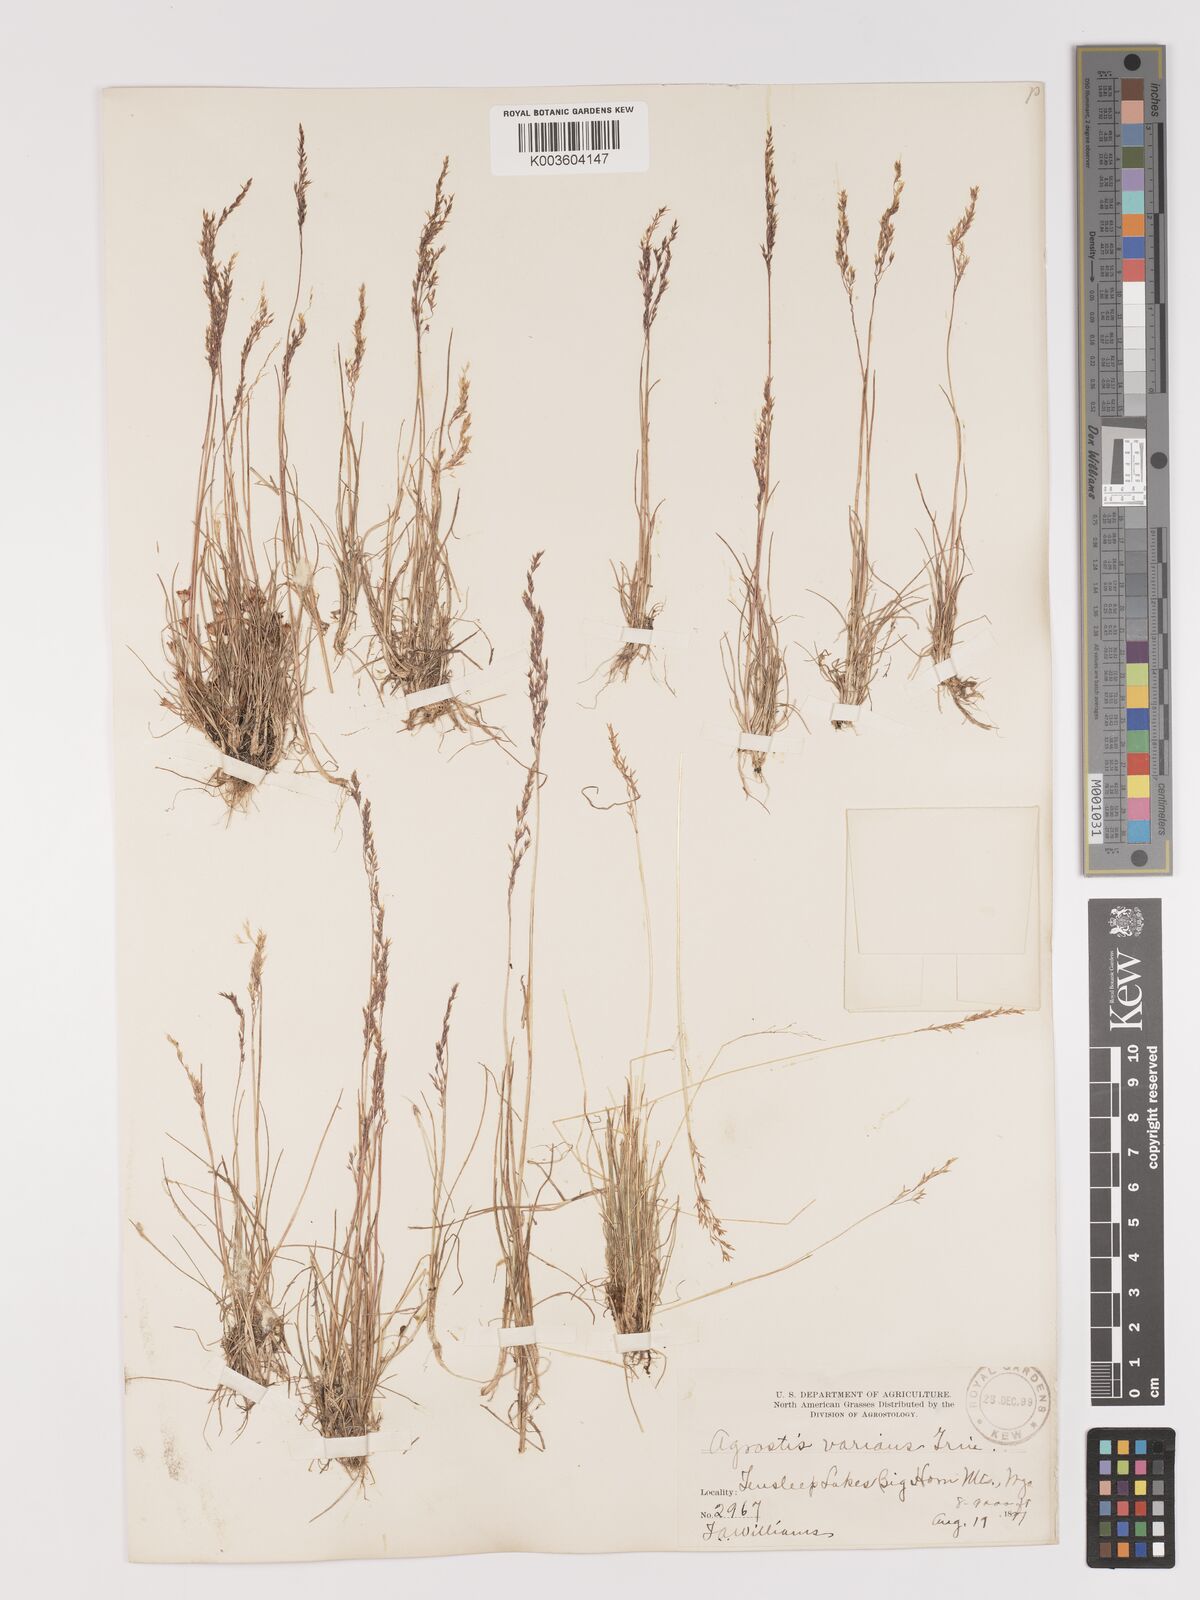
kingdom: Plantae
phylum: Tracheophyta
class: Liliopsida
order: Poales
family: Poaceae
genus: Agrostis
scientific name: Agrostis rossiae
